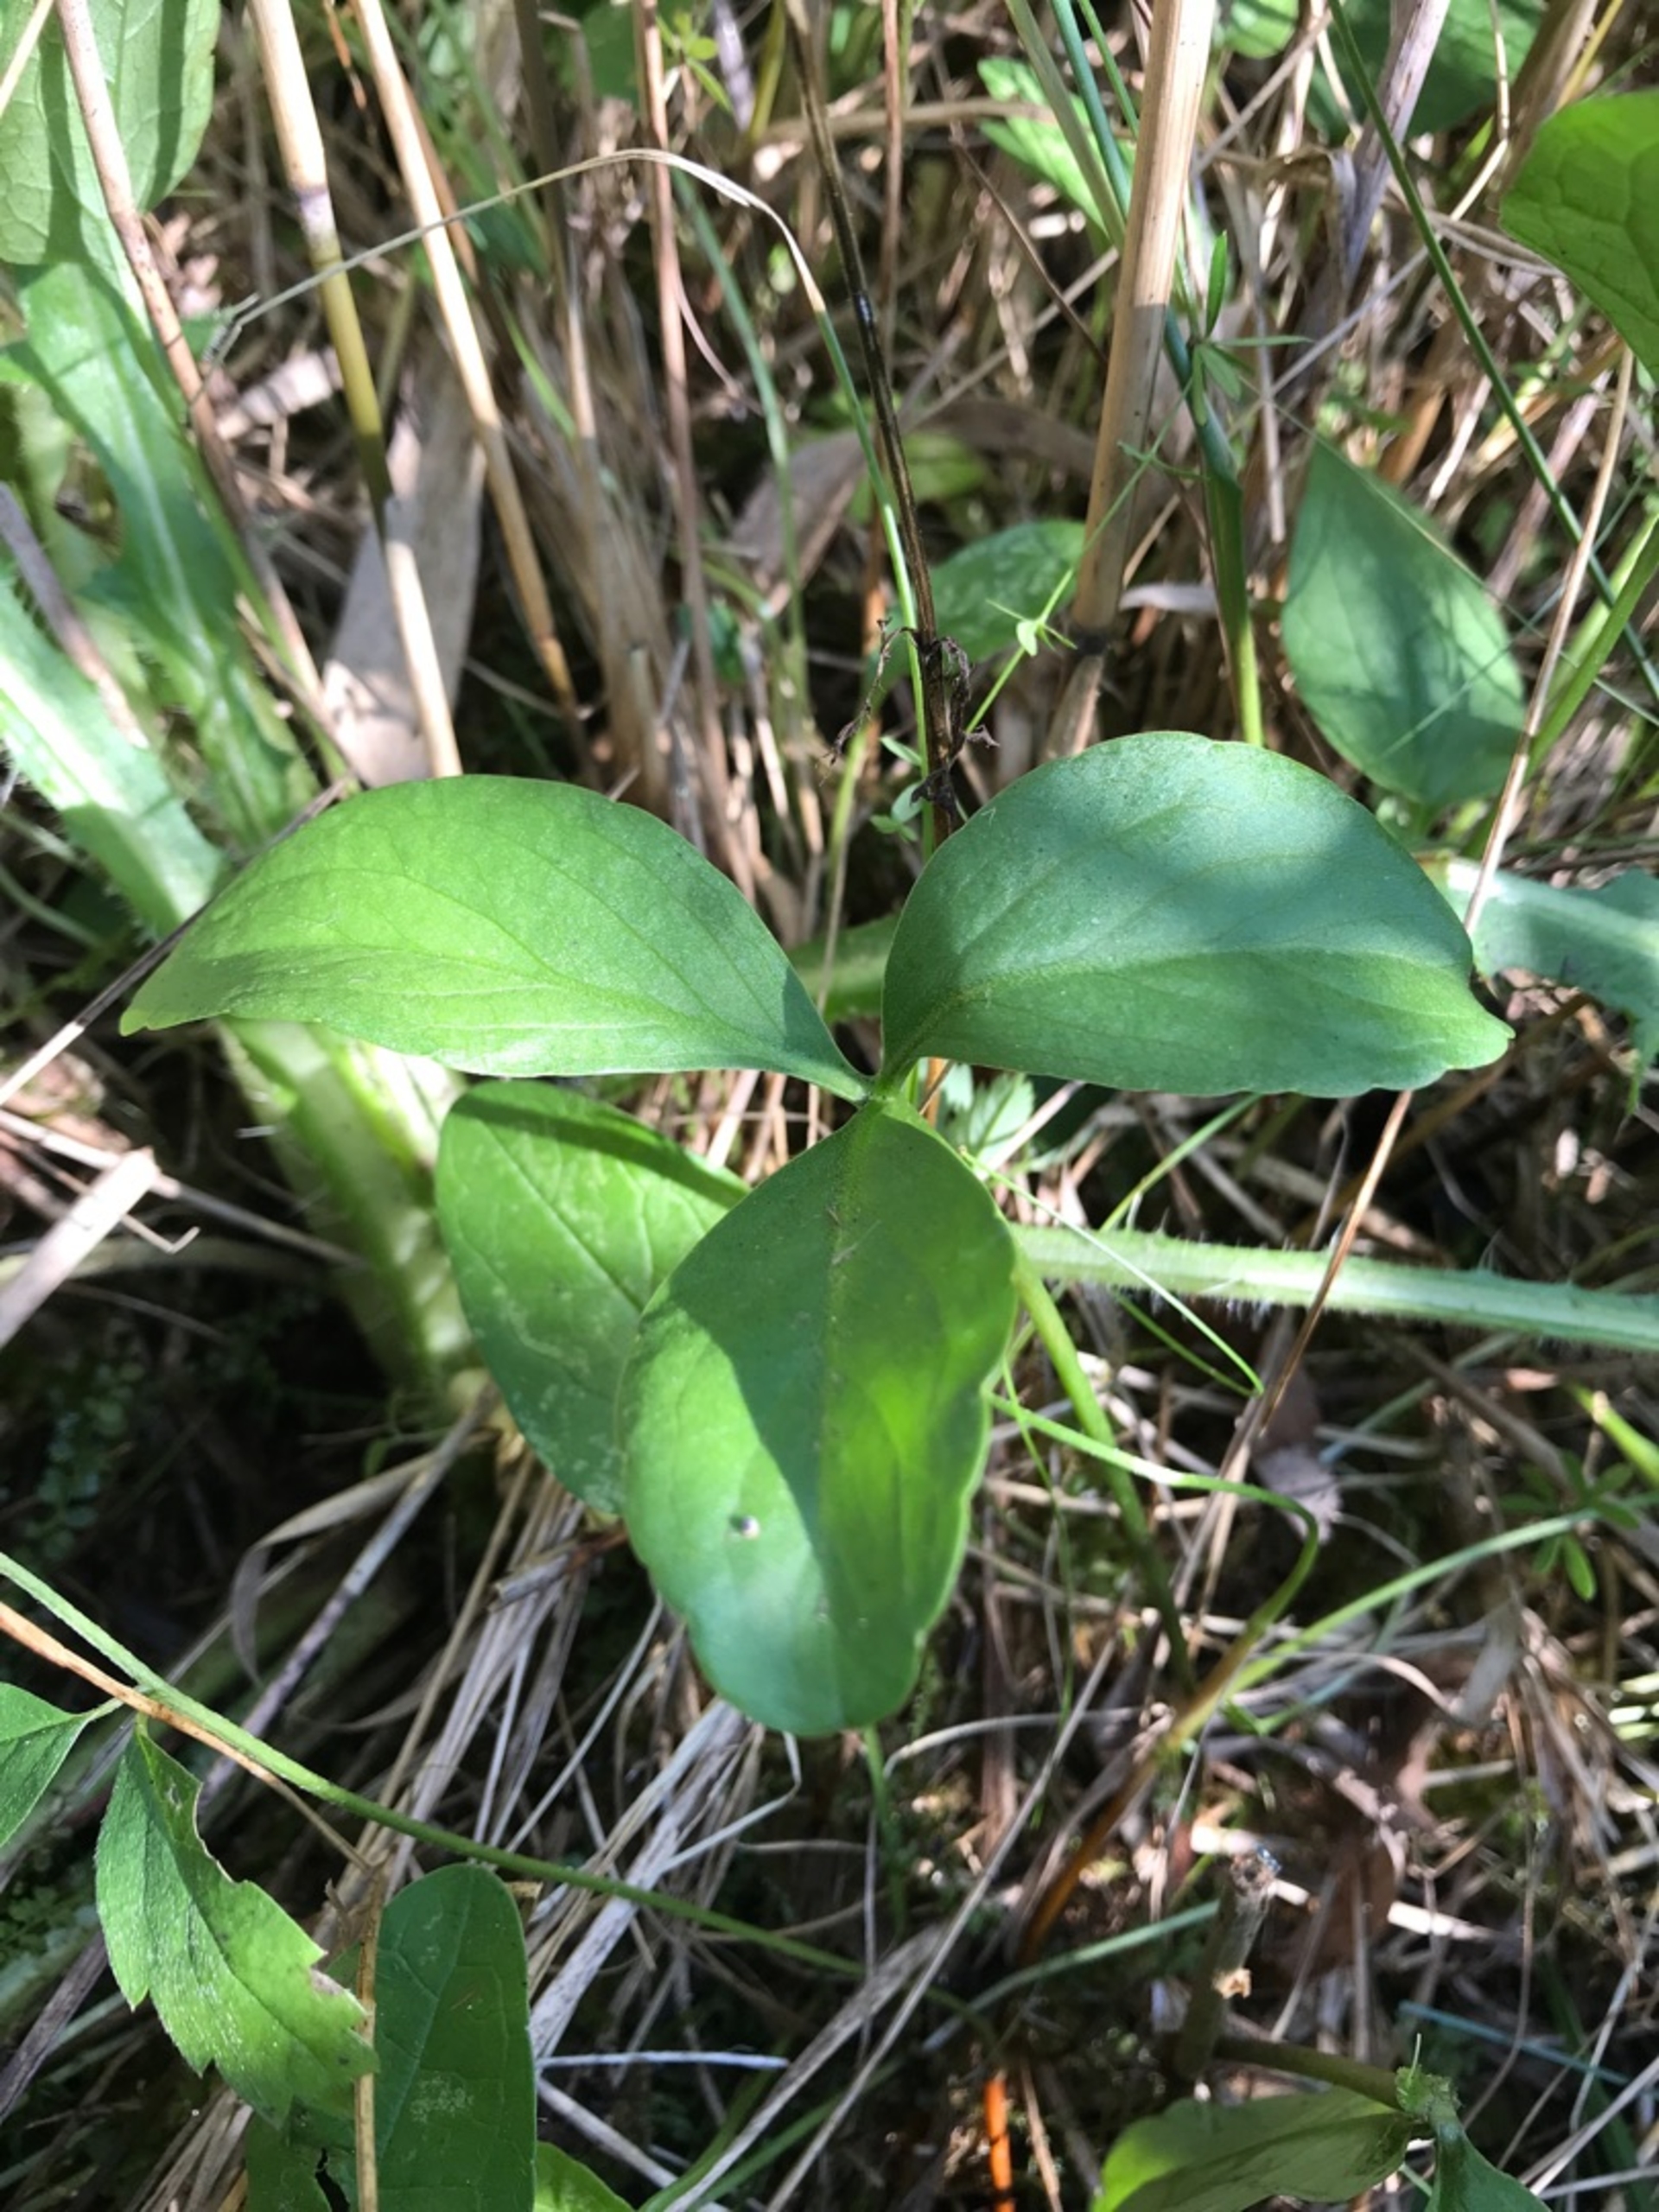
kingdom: Plantae
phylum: Tracheophyta
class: Magnoliopsida
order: Asterales
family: Menyanthaceae
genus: Menyanthes
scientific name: Menyanthes trifoliata
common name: Bukkeblad
